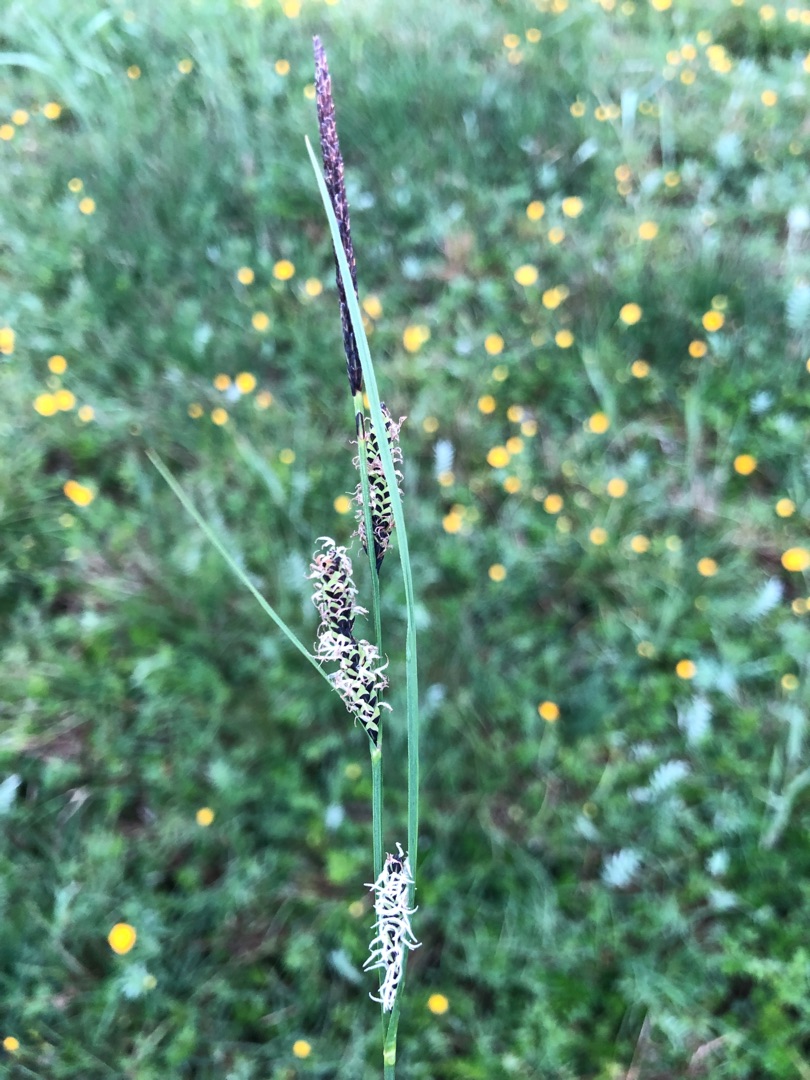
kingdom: Plantae
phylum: Tracheophyta
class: Liliopsida
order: Poales
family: Cyperaceae
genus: Carex
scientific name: Carex nigra
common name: Almindelig star
